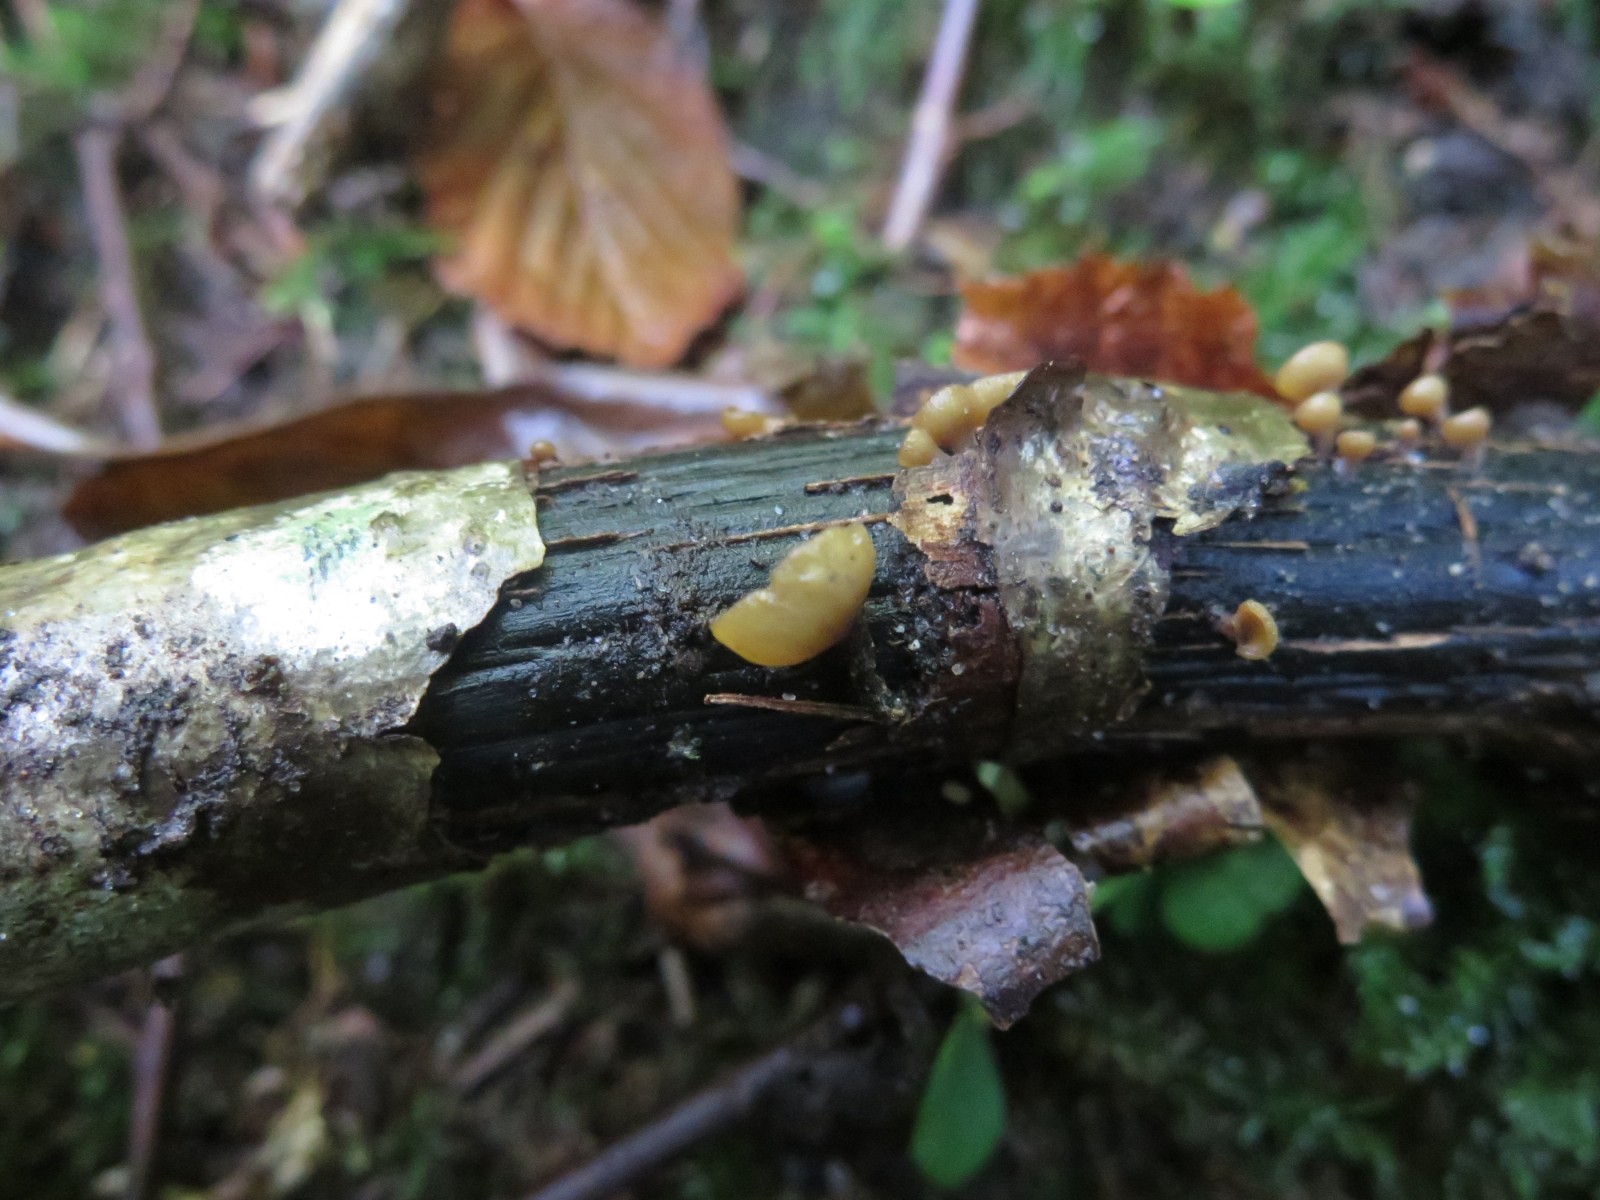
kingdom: Fungi
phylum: Ascomycota
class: Leotiomycetes
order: Helotiales
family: Rutstroemiaceae
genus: Rutstroemia
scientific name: Rutstroemia firma
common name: gren-brunskive
